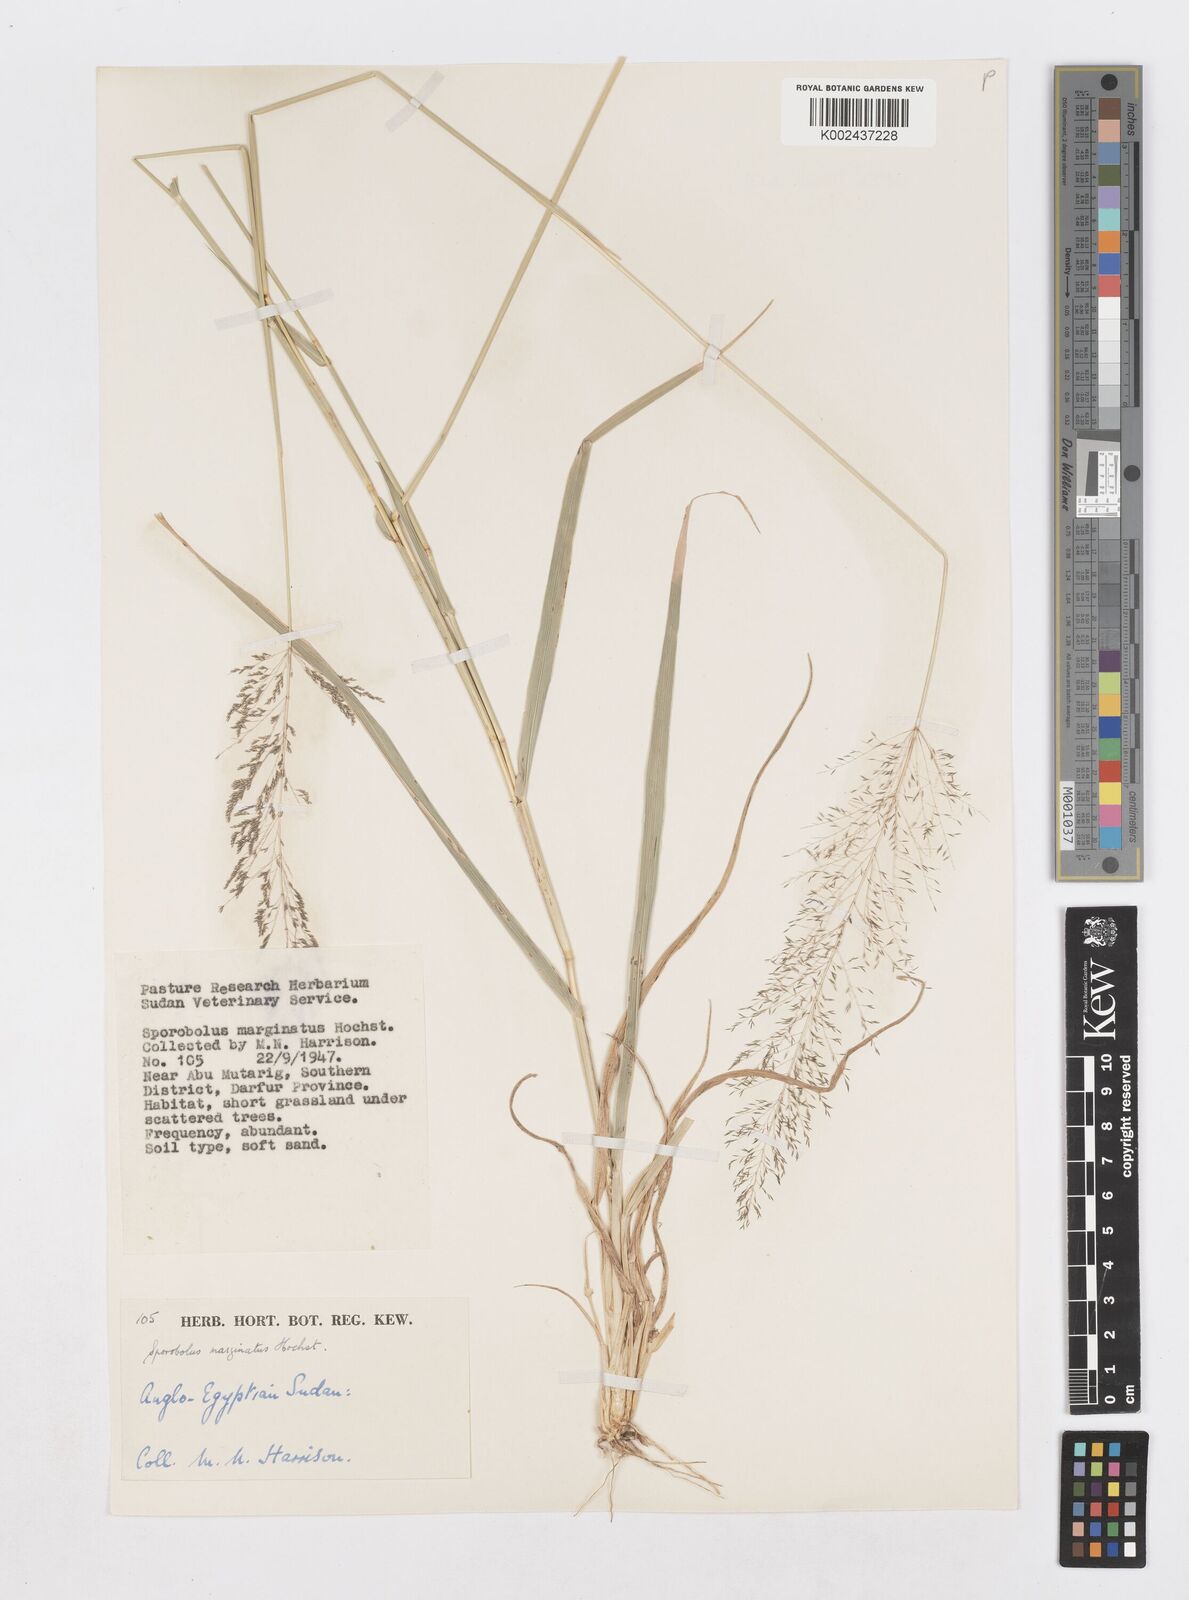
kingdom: Plantae
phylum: Tracheophyta
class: Liliopsida
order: Poales
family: Poaceae
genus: Sporobolus
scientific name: Sporobolus ioclados
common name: Pan dropseed
